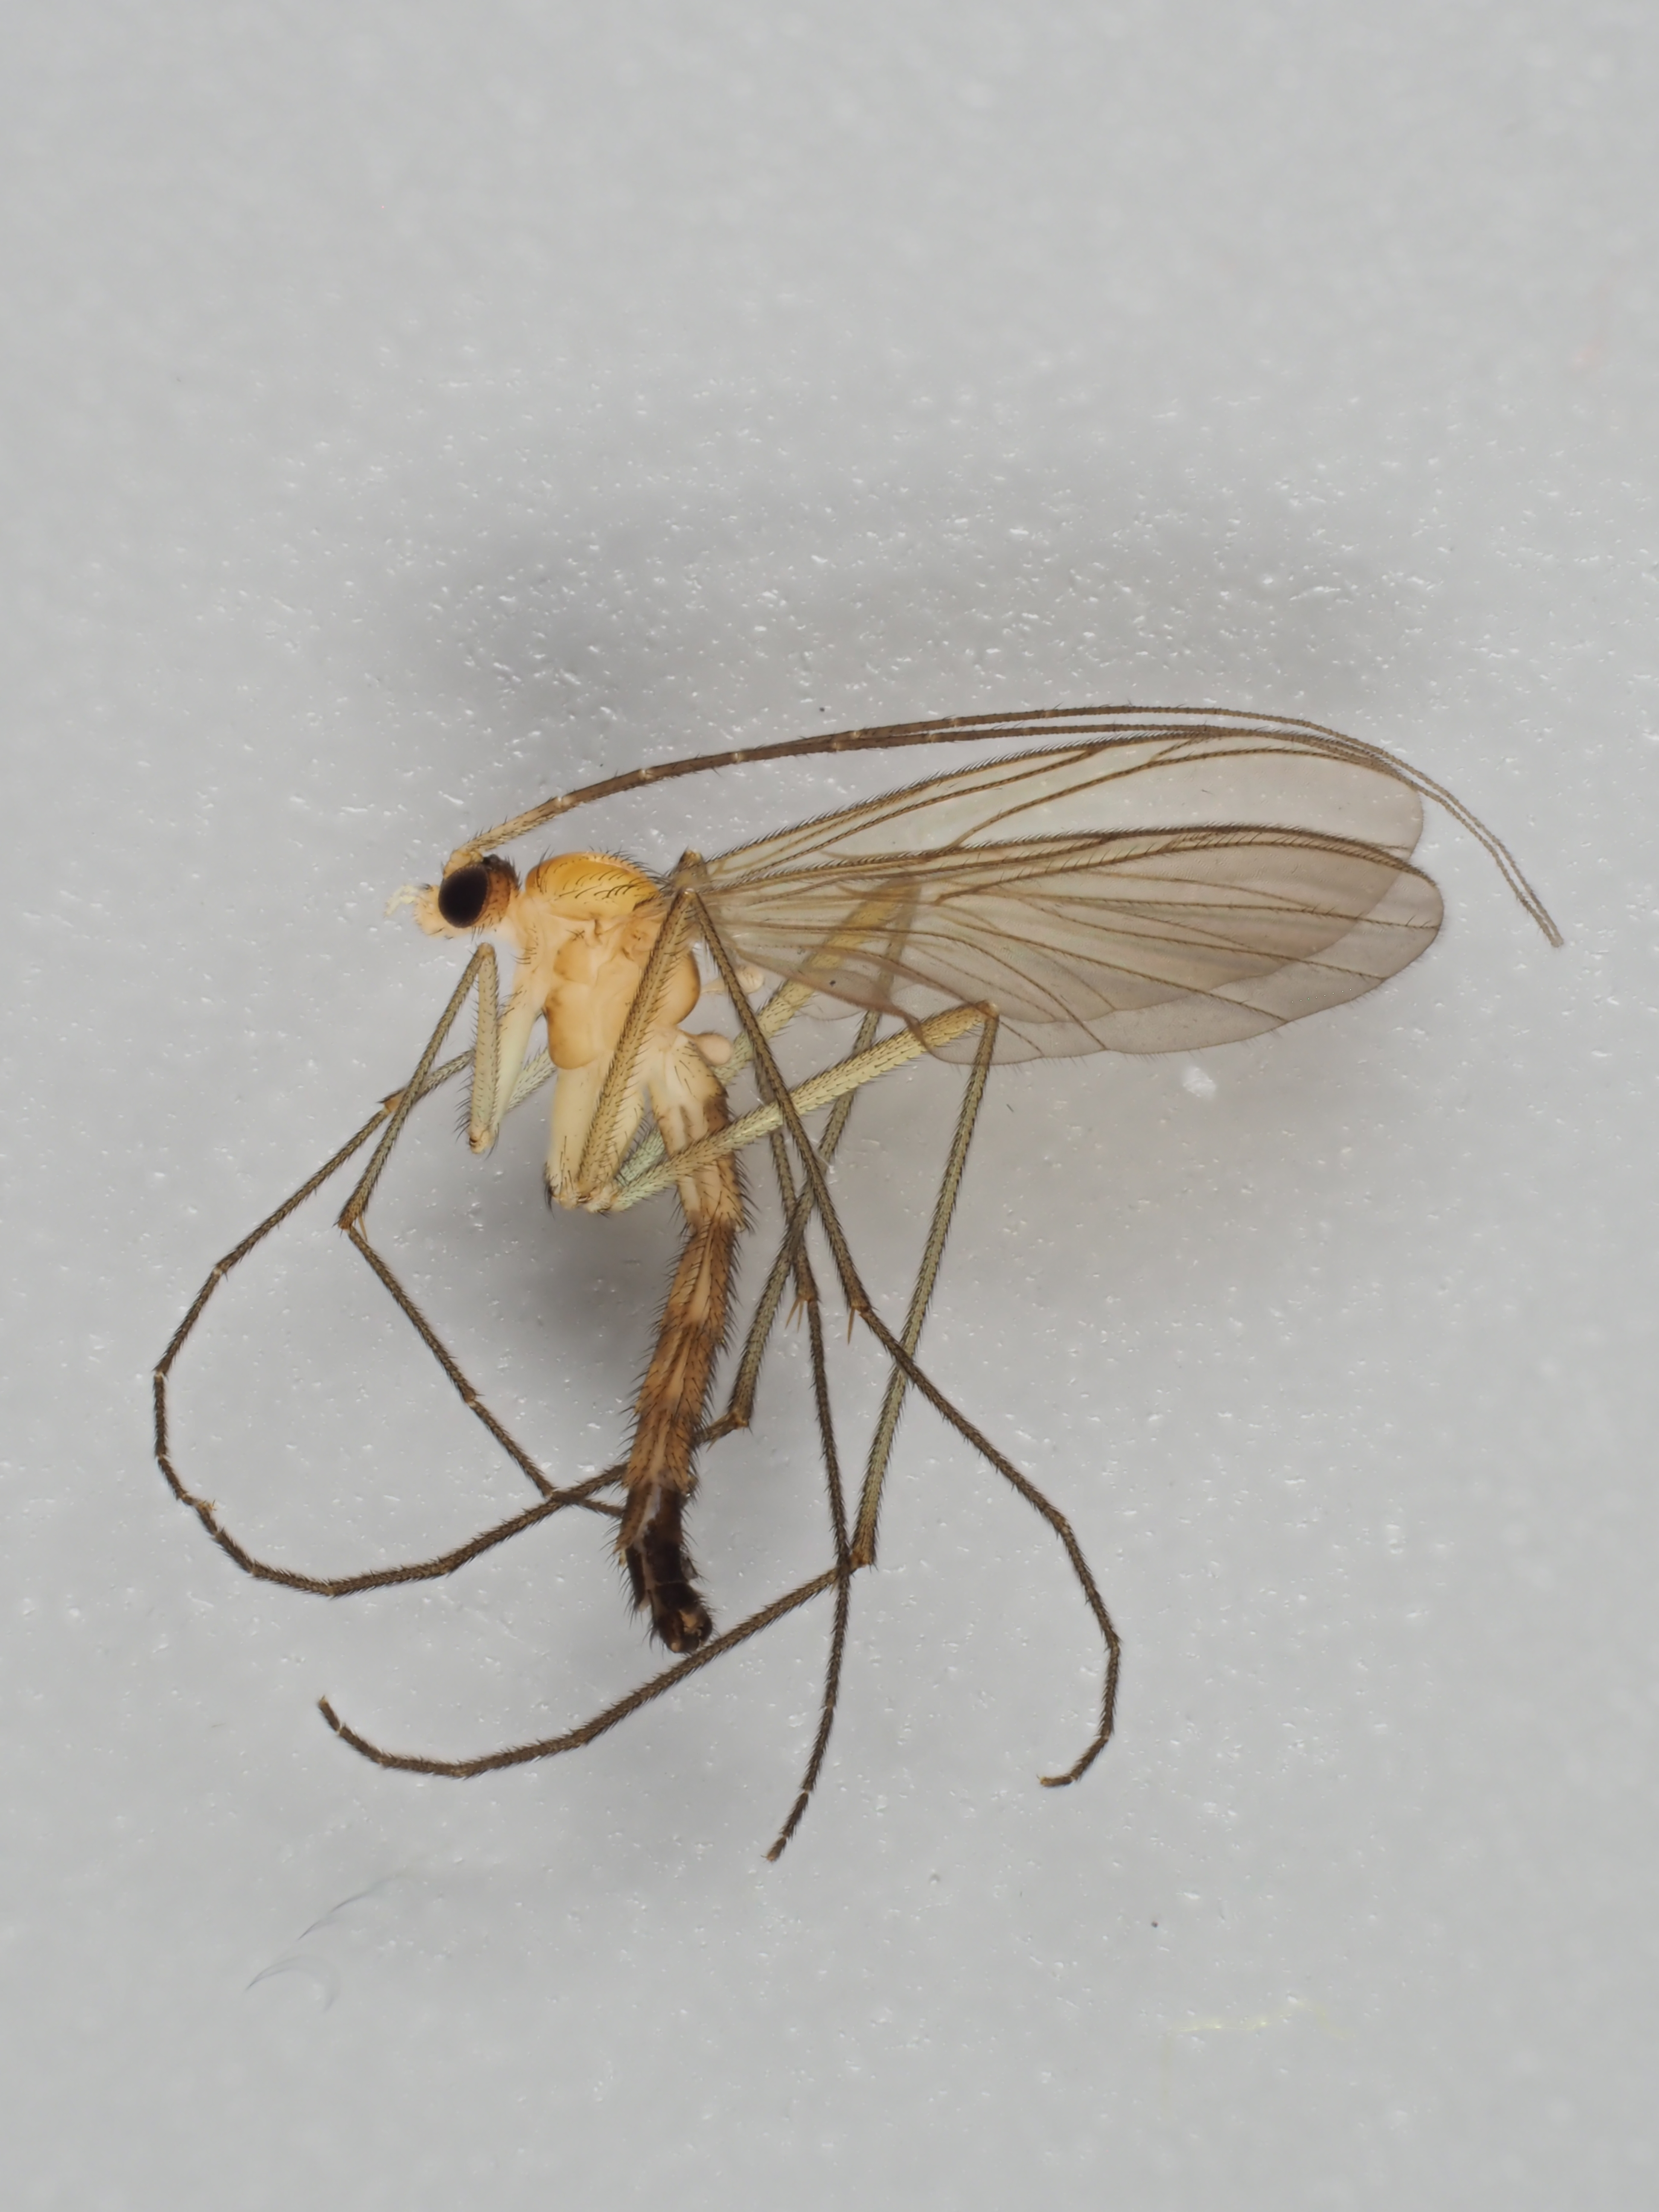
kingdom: Animalia
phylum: Arthropoda
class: Insecta
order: Diptera
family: Keroplatidae
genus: Macrocera
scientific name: Macrocera inversa
